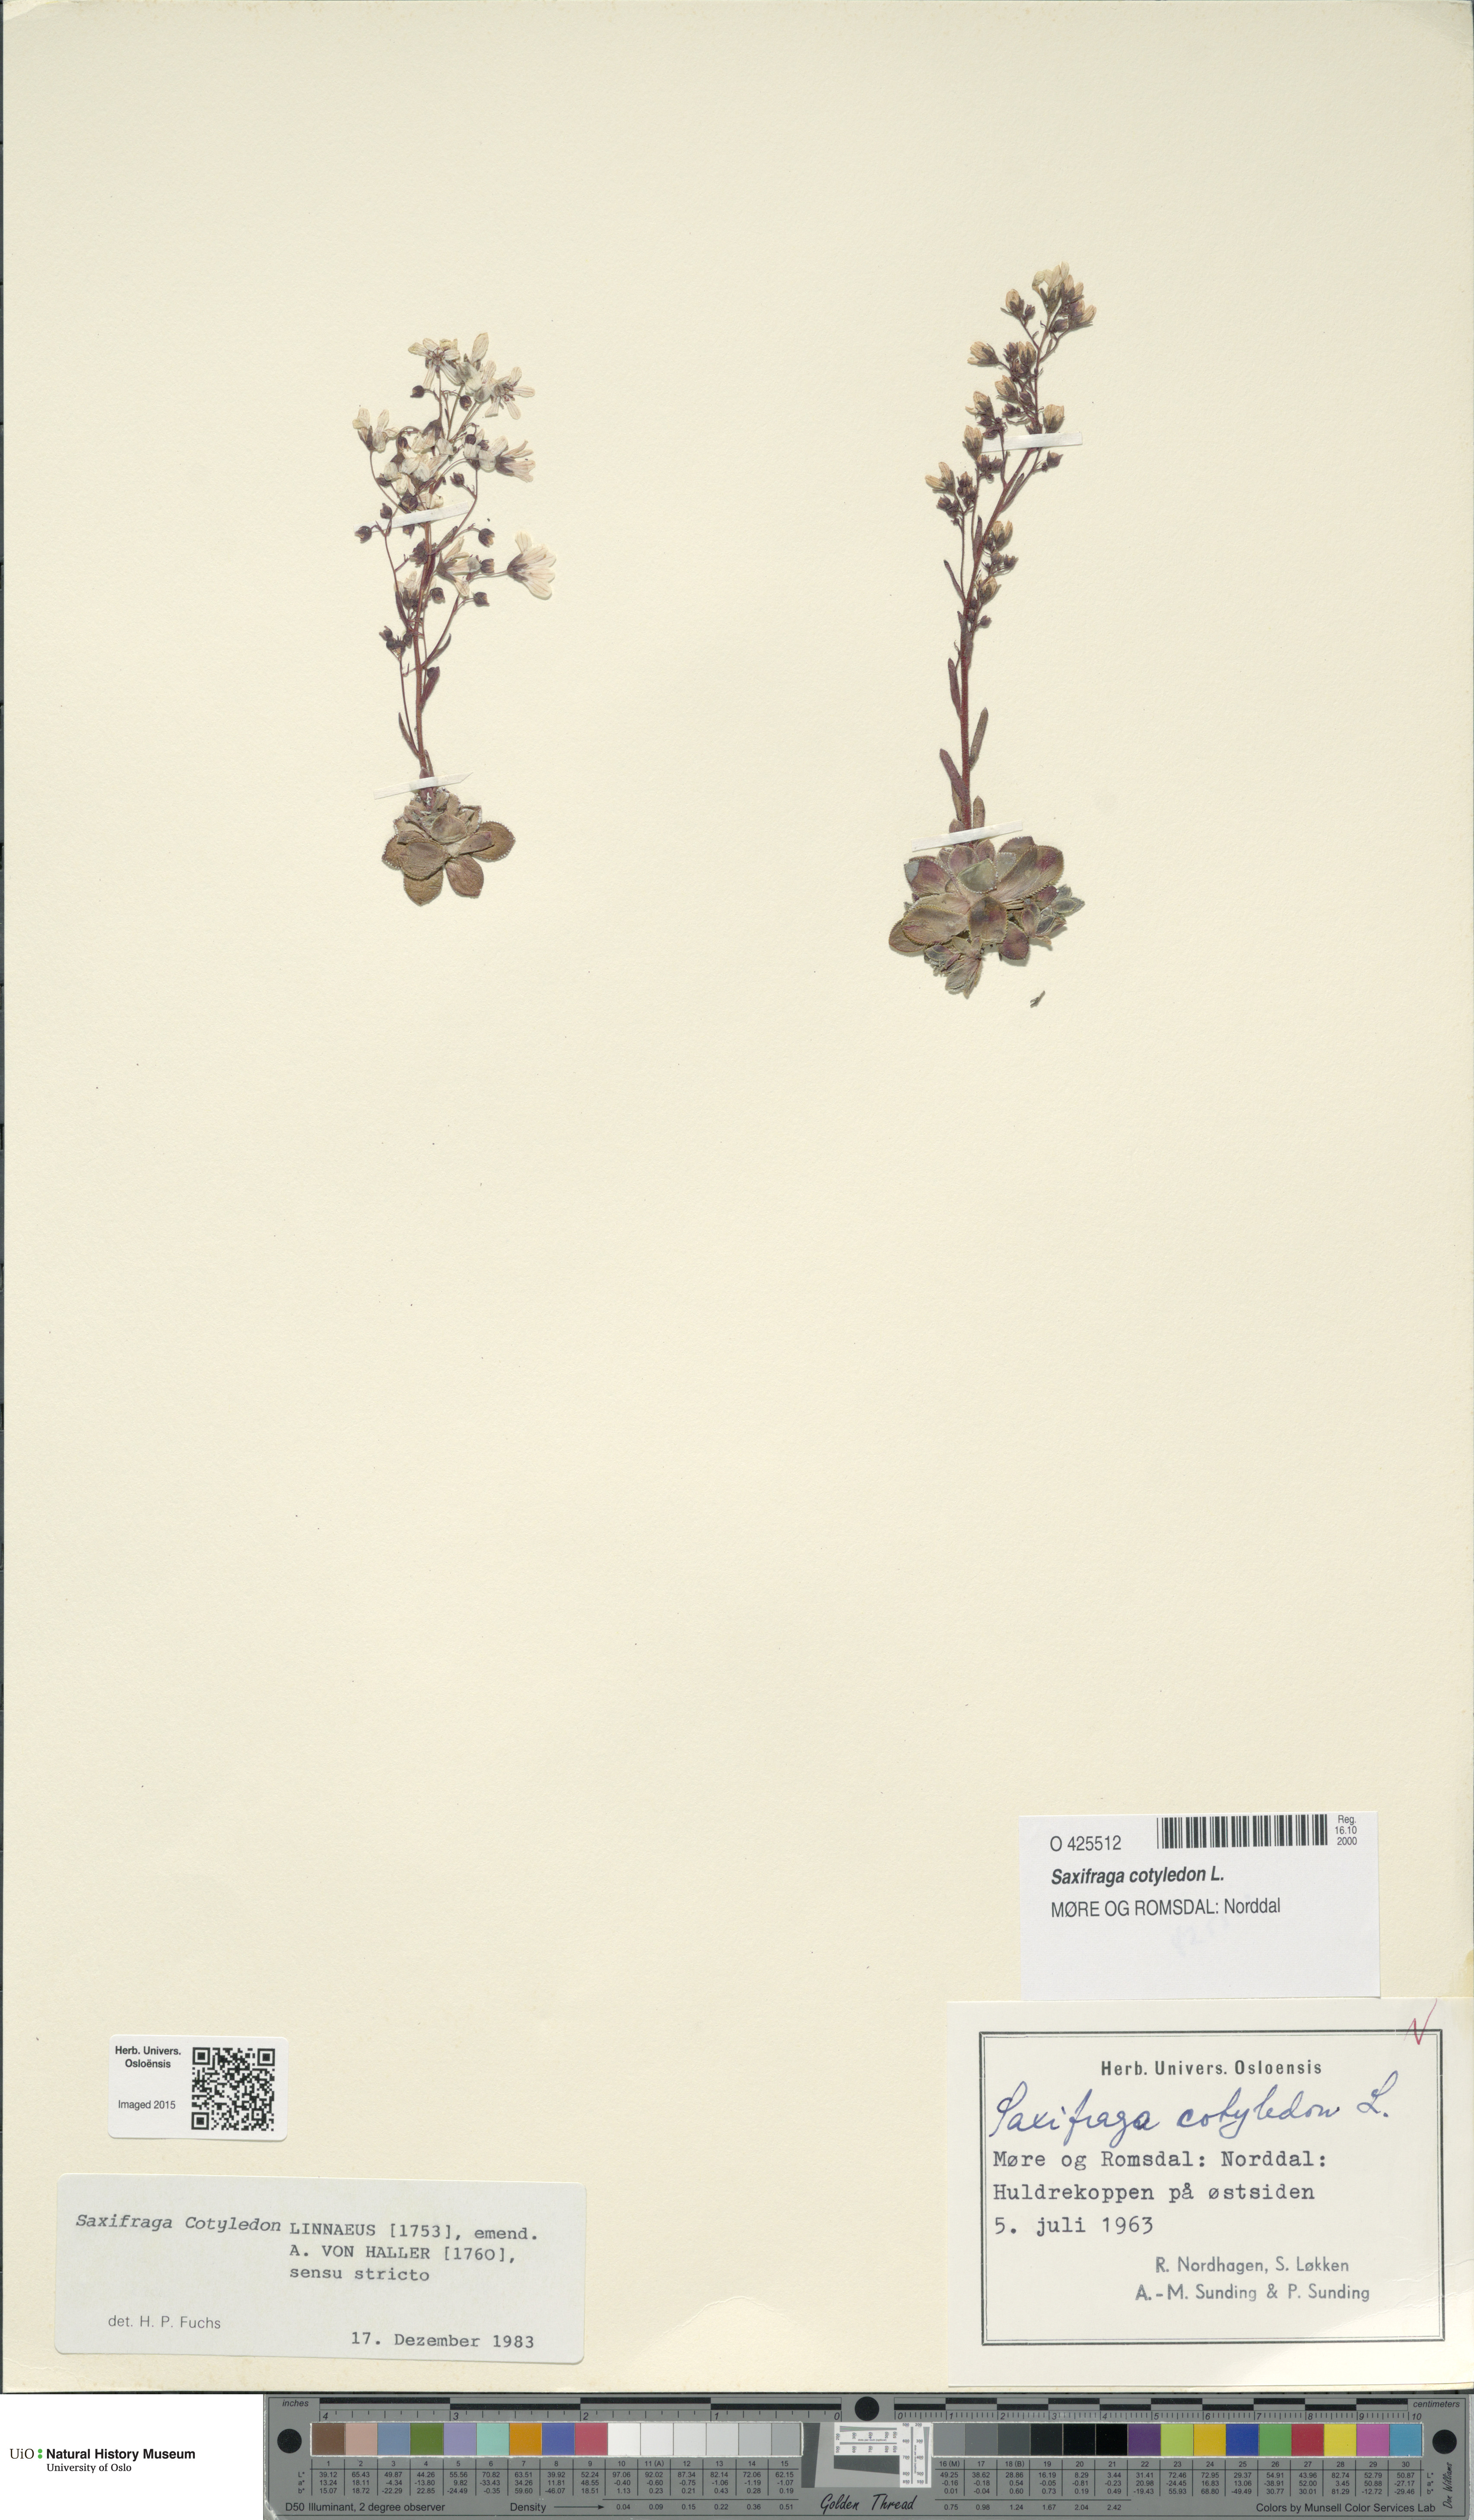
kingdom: Plantae
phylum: Tracheophyta
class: Magnoliopsida
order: Saxifragales
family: Saxifragaceae
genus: Saxifraga
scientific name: Saxifraga cotyledon
